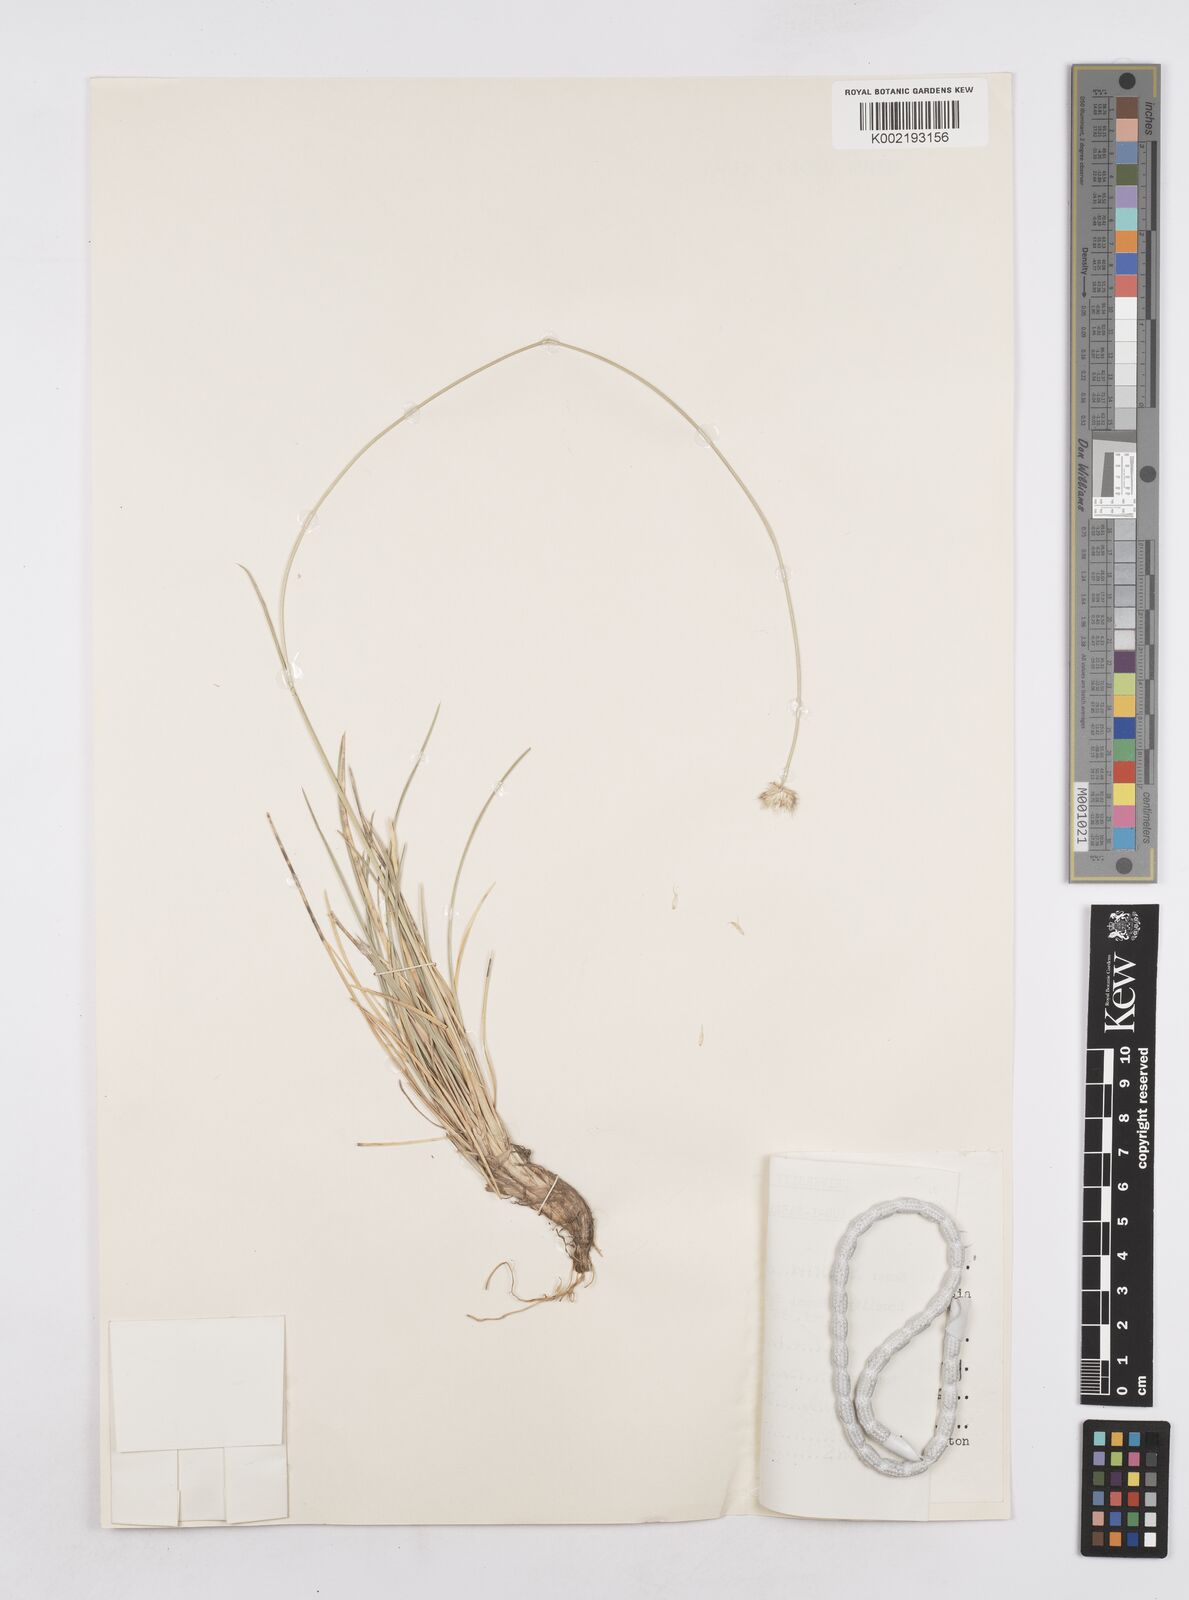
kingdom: Plantae
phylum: Tracheophyta
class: Liliopsida
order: Poales
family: Poaceae
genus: Sesleria
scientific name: Sesleria phleoides
